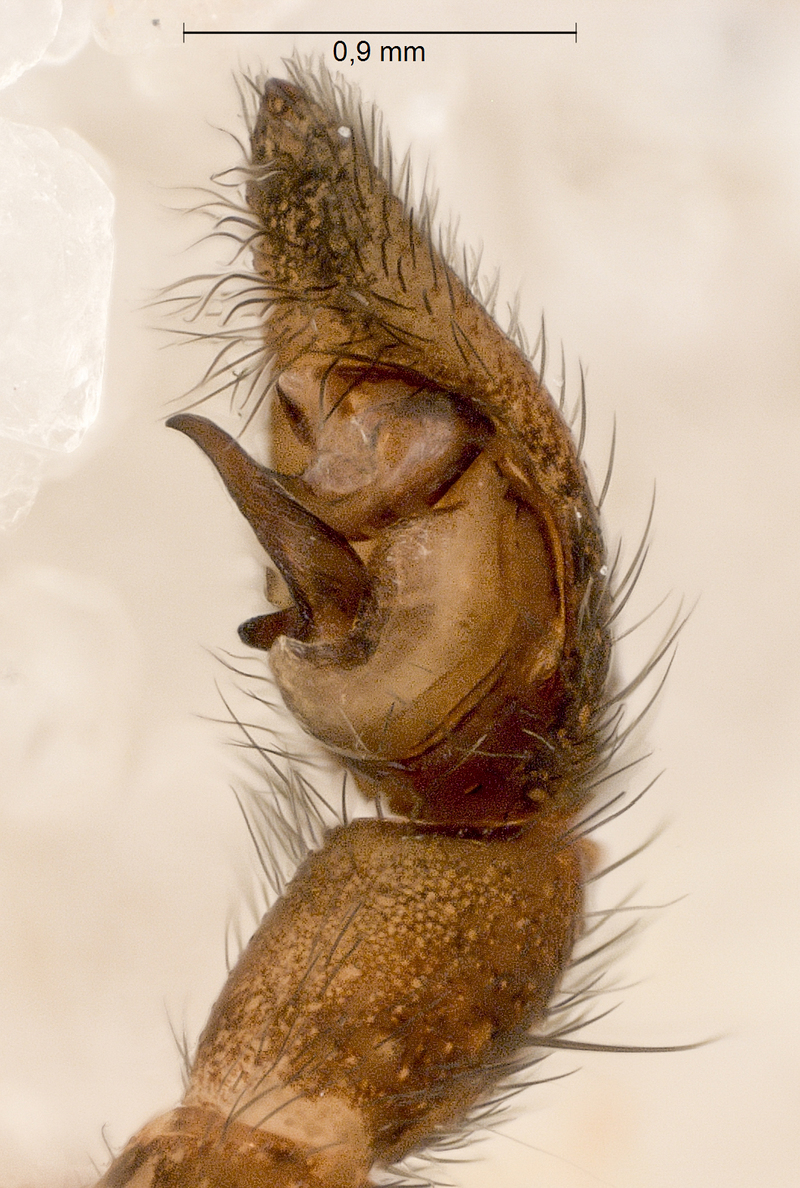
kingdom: Animalia
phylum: Arthropoda
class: Arachnida
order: Araneae
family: Lycosidae
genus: Pardosa
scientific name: Pardosa lugubris
